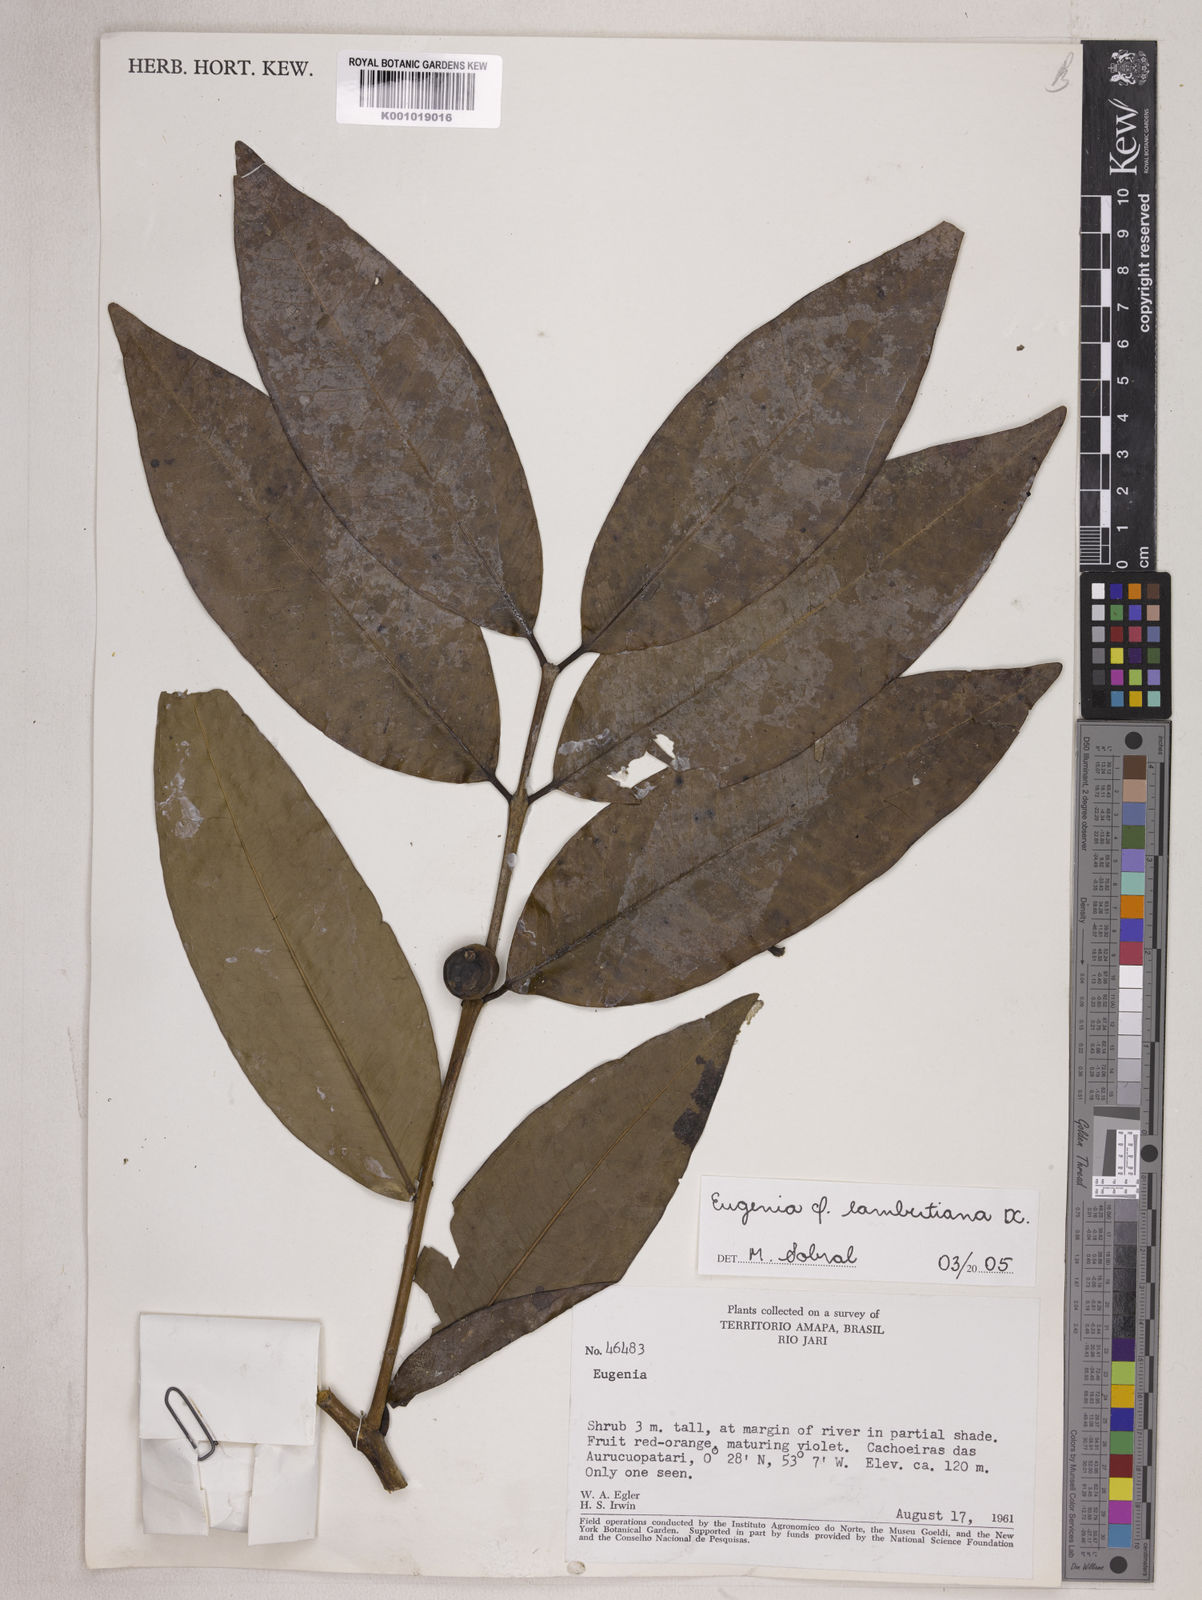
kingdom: Plantae
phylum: Tracheophyta
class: Magnoliopsida
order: Myrtales
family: Myrtaceae
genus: Eugenia
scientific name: Eugenia lambertiana
